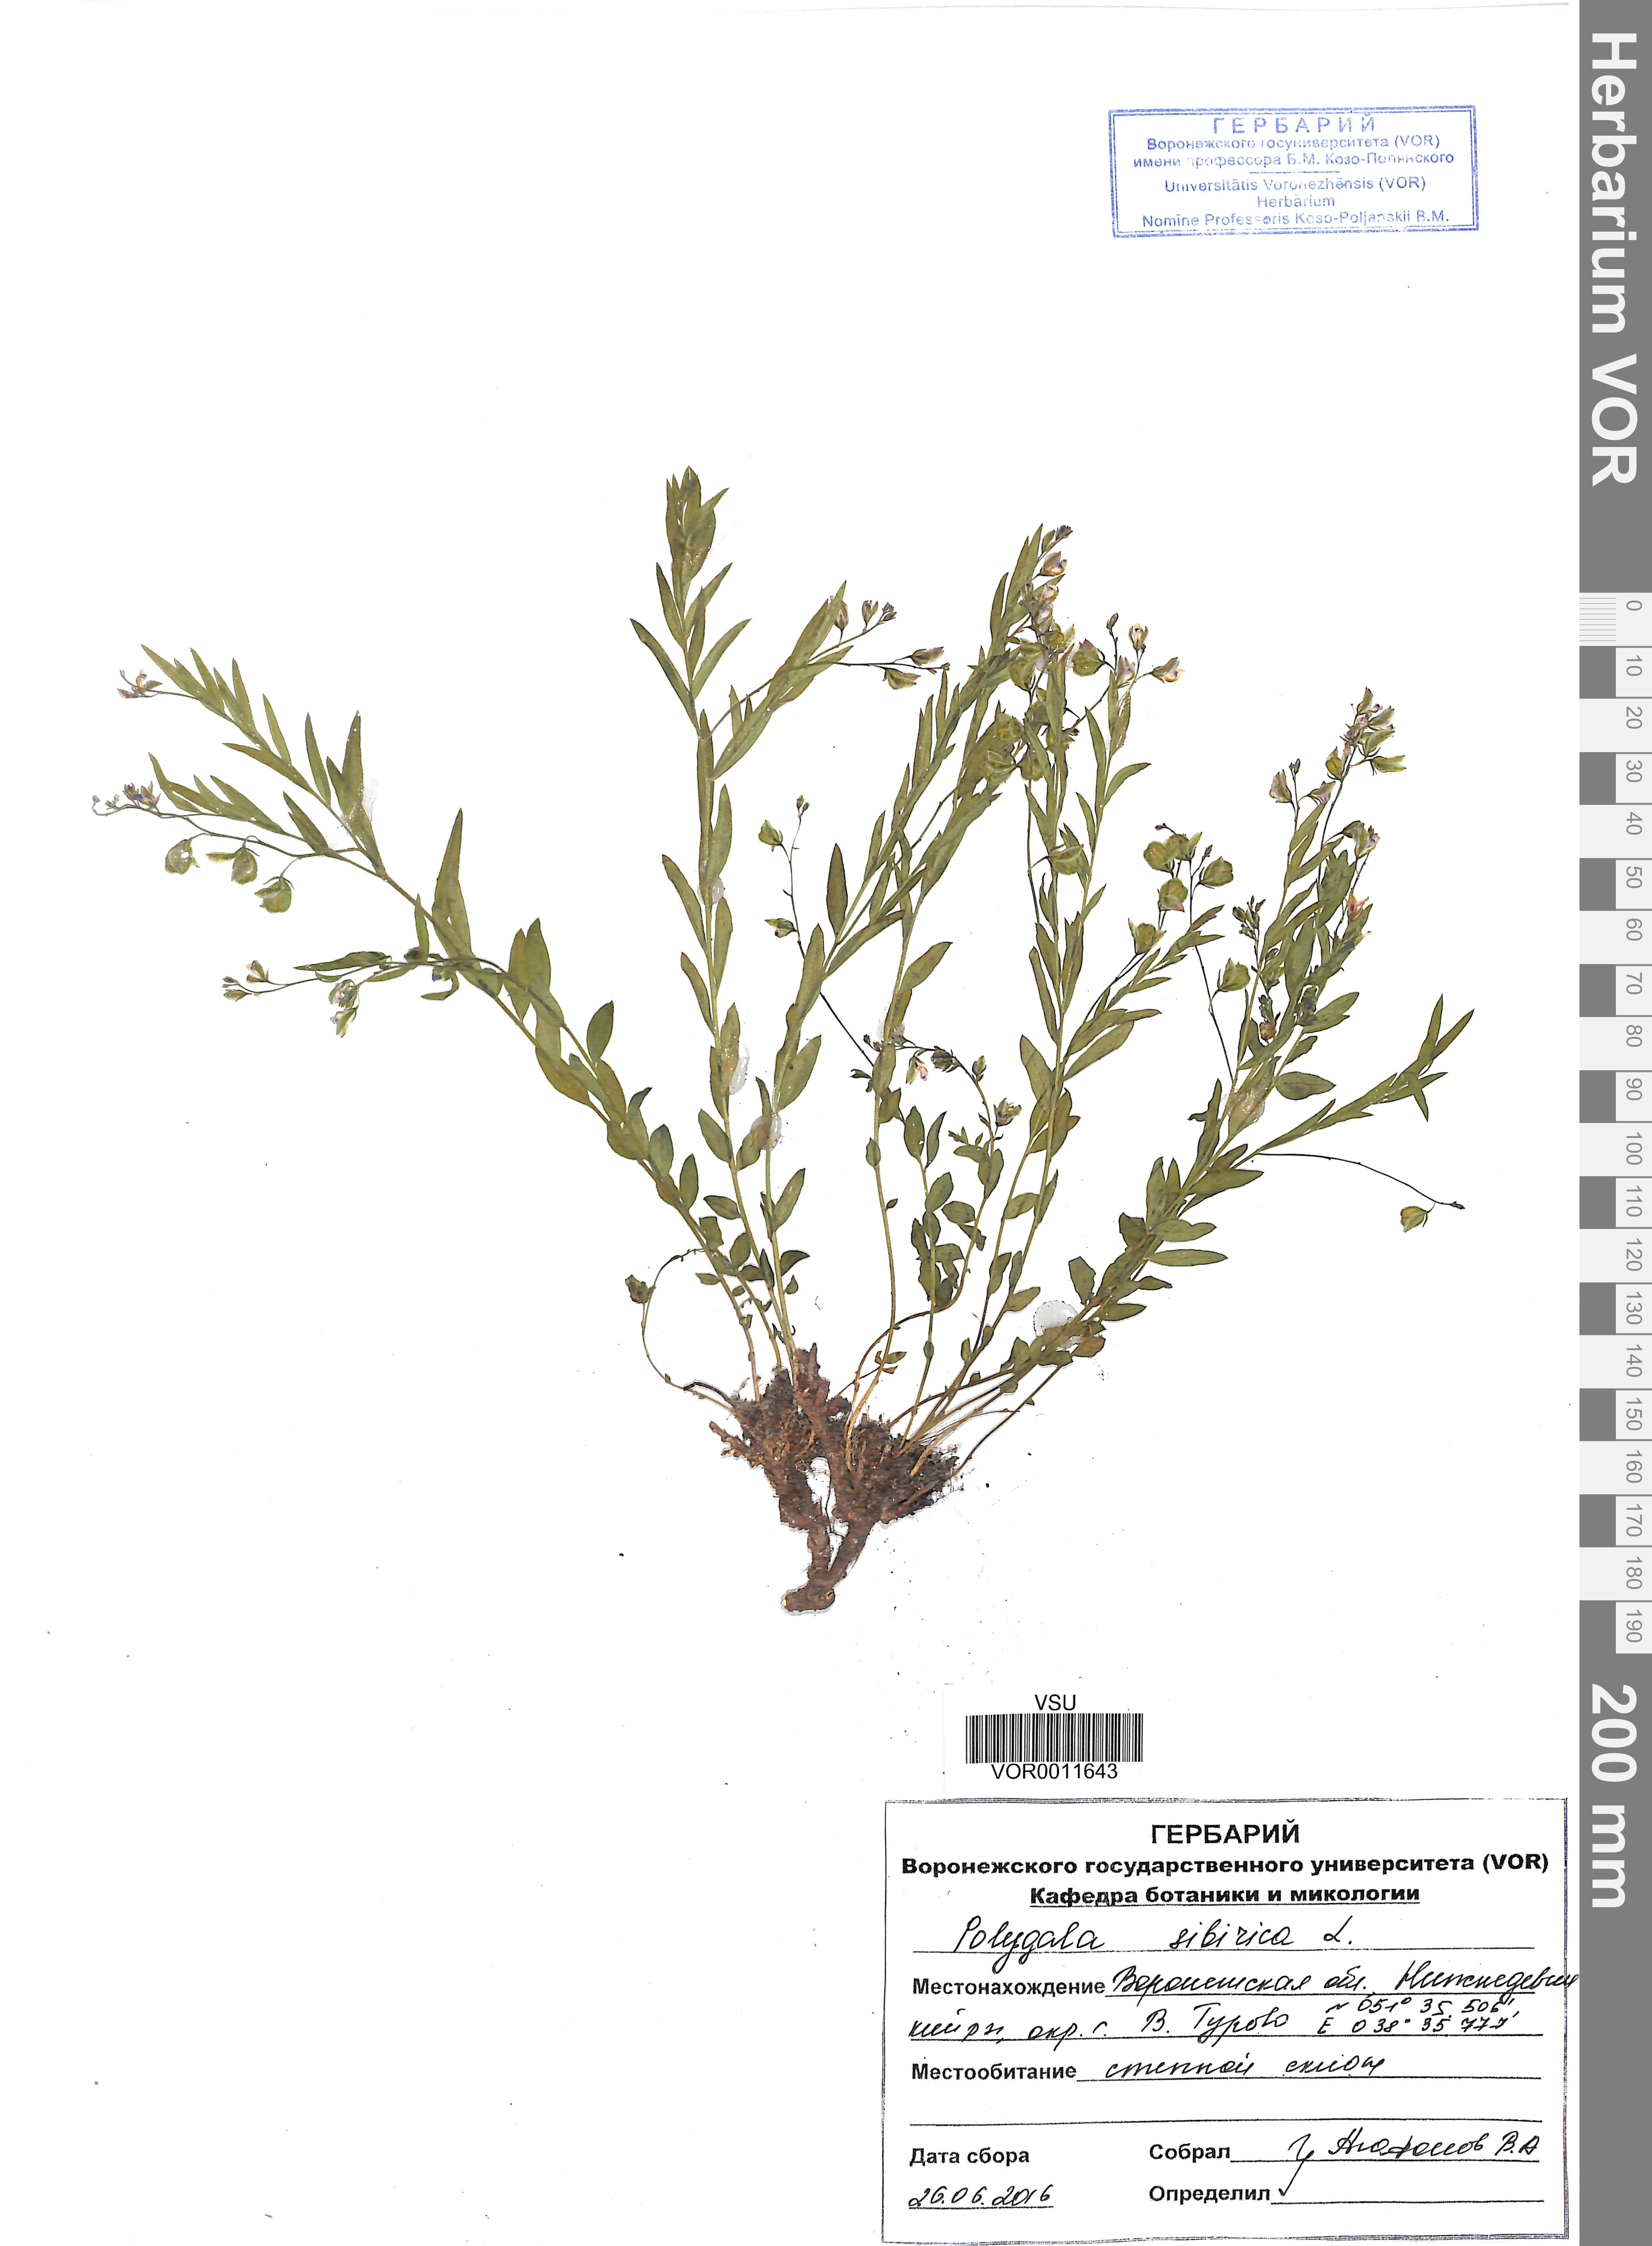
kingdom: Plantae
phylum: Tracheophyta
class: Magnoliopsida
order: Fabales
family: Polygalaceae
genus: Polygala
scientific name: Polygala sibirica
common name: Siberian polygala
